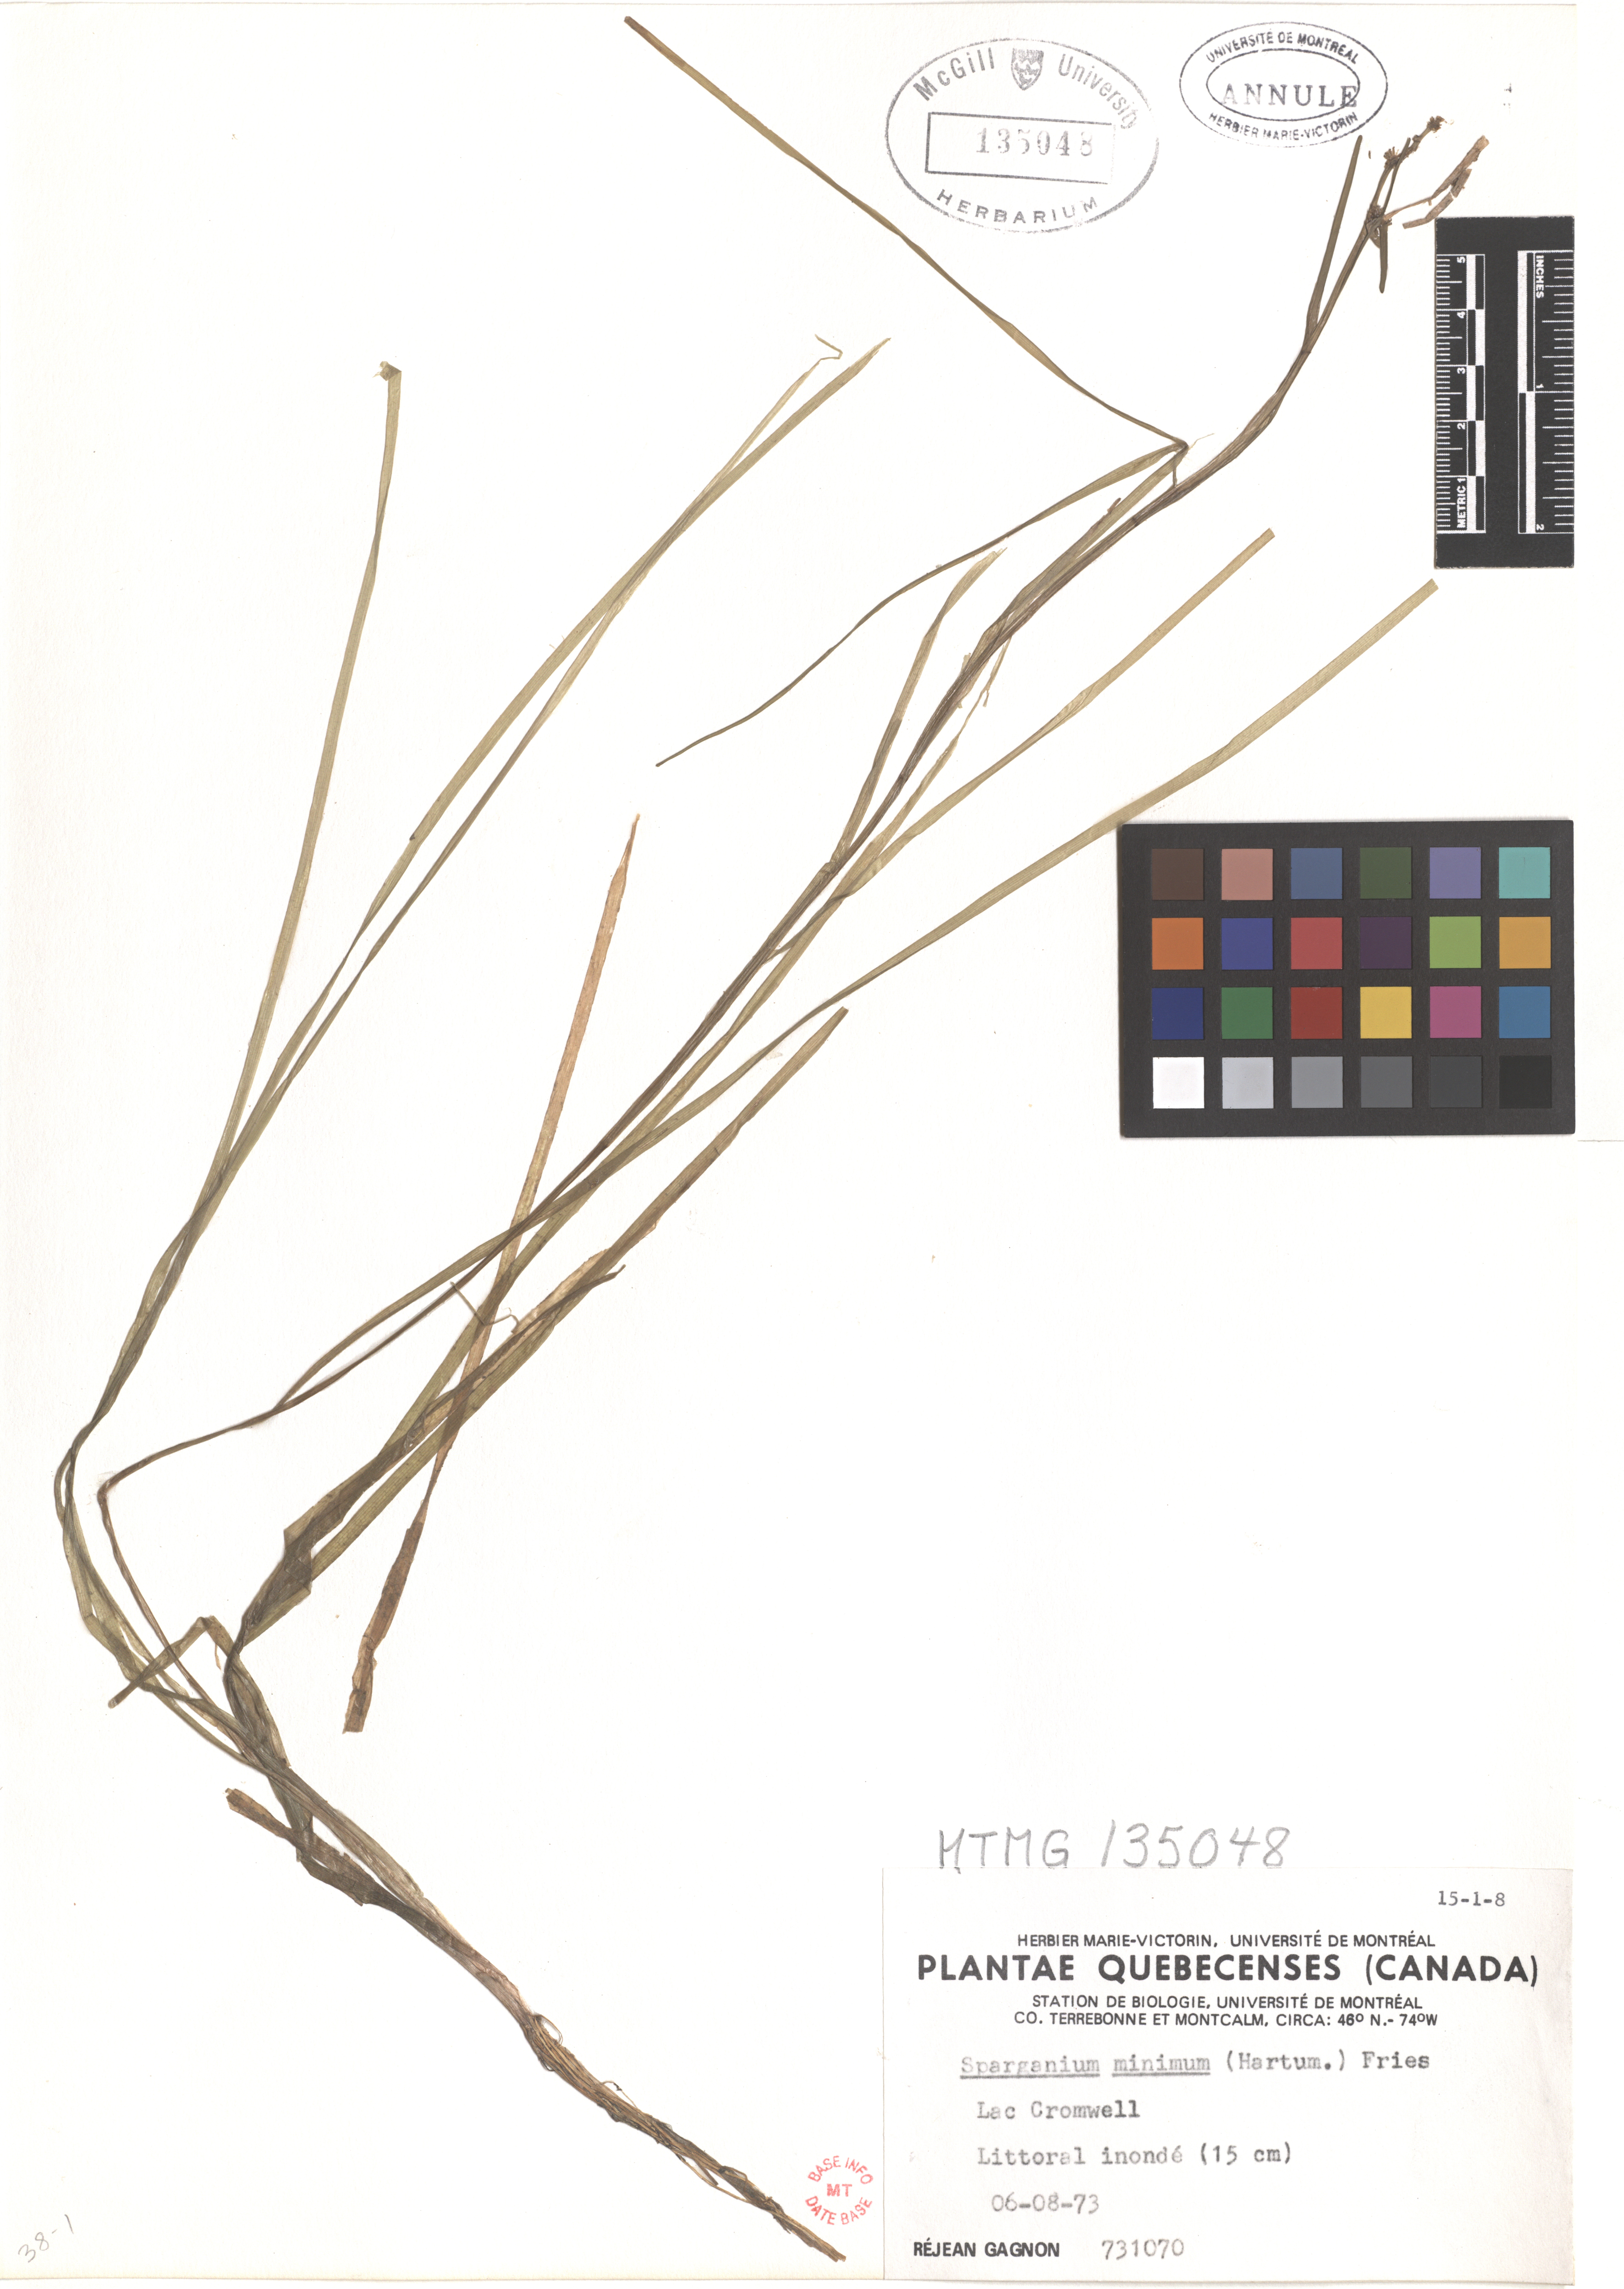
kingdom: Plantae
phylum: Tracheophyta
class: Liliopsida
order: Poales
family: Typhaceae
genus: Sparganium
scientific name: Sparganium natans
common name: Least bur-reed
